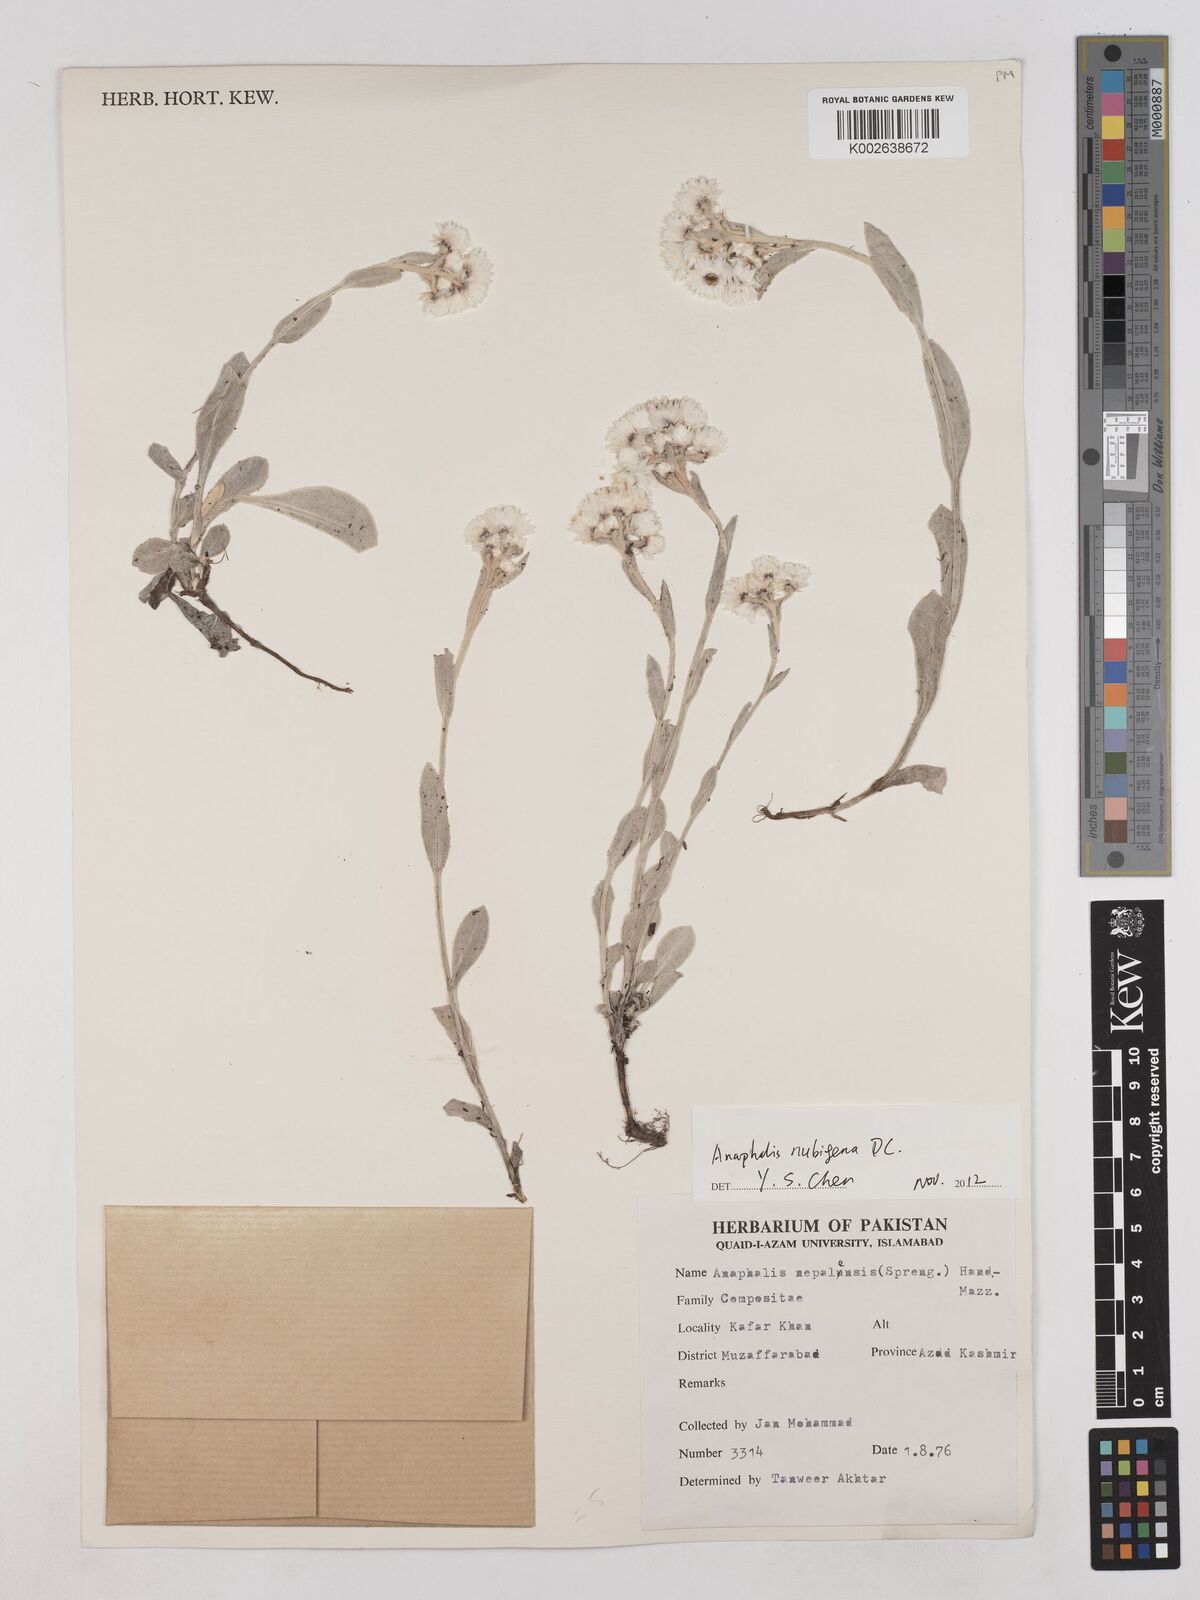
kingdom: Plantae
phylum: Tracheophyta
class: Magnoliopsida
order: Asterales
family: Asteraceae
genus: Anaphalis
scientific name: Anaphalis nepalensis
